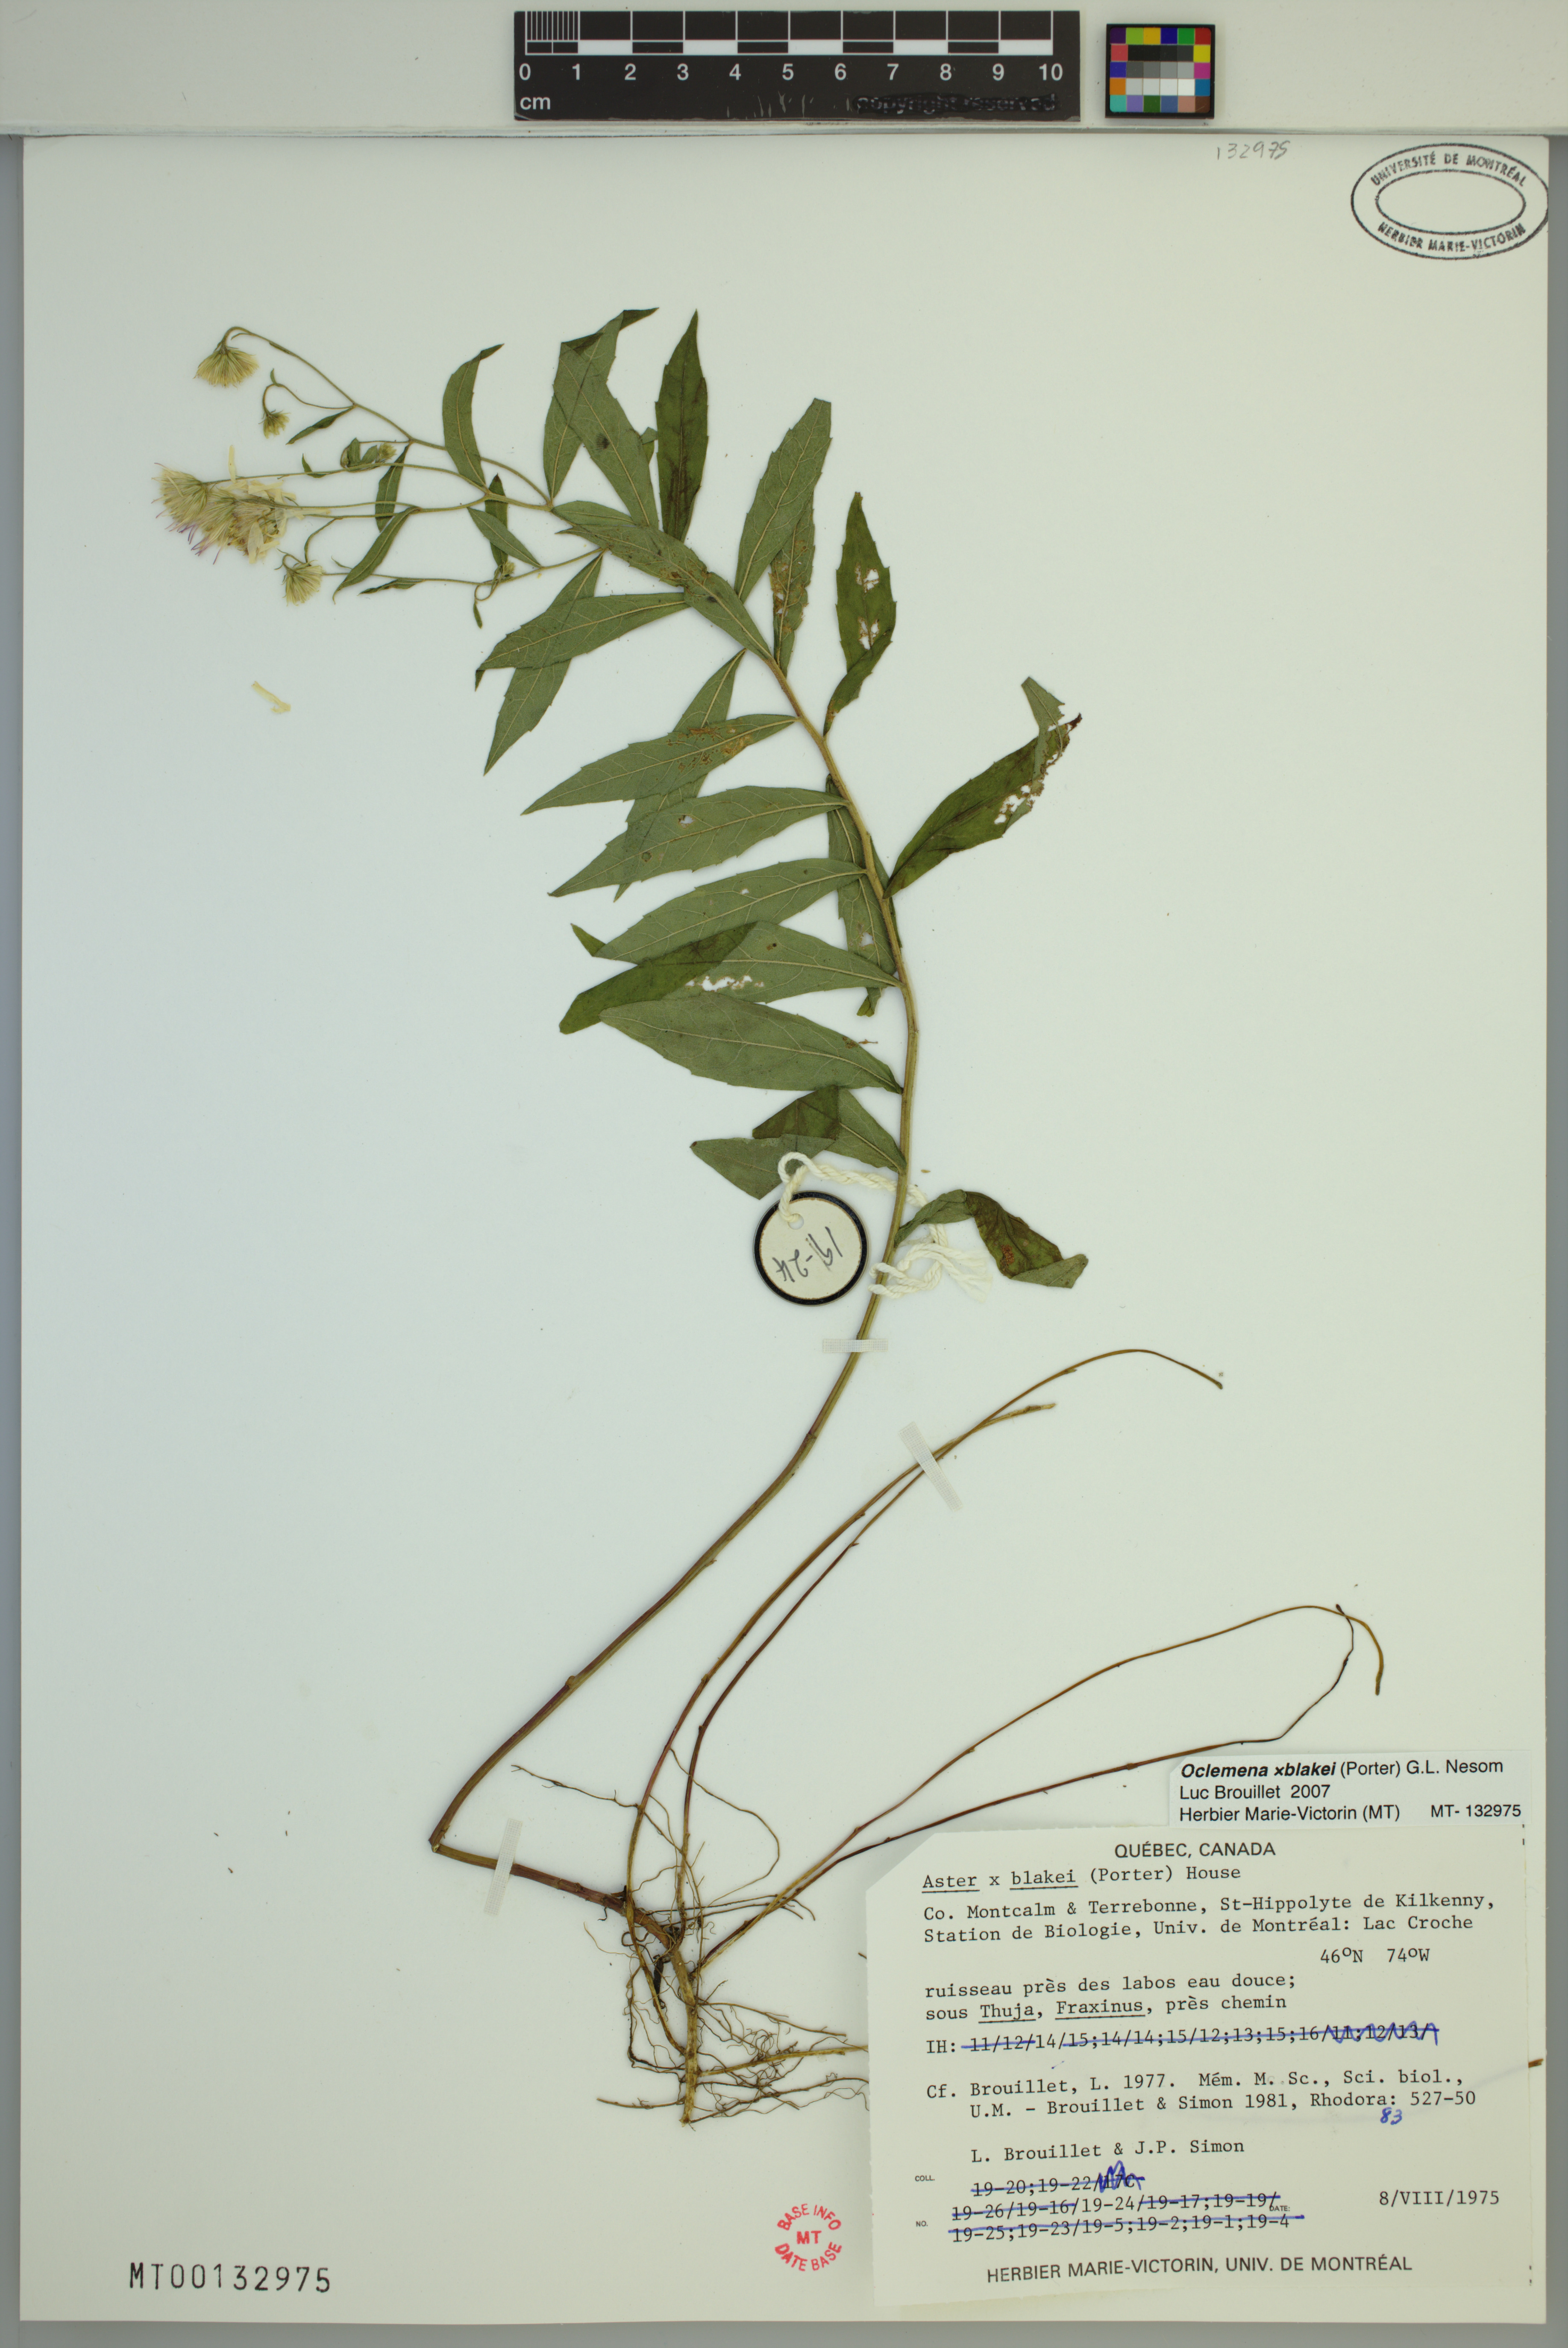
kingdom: Plantae
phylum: Tracheophyta
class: Magnoliopsida
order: Asterales
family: Asteraceae
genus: Oclemena
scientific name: Oclemena blakei
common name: Blake's aster
